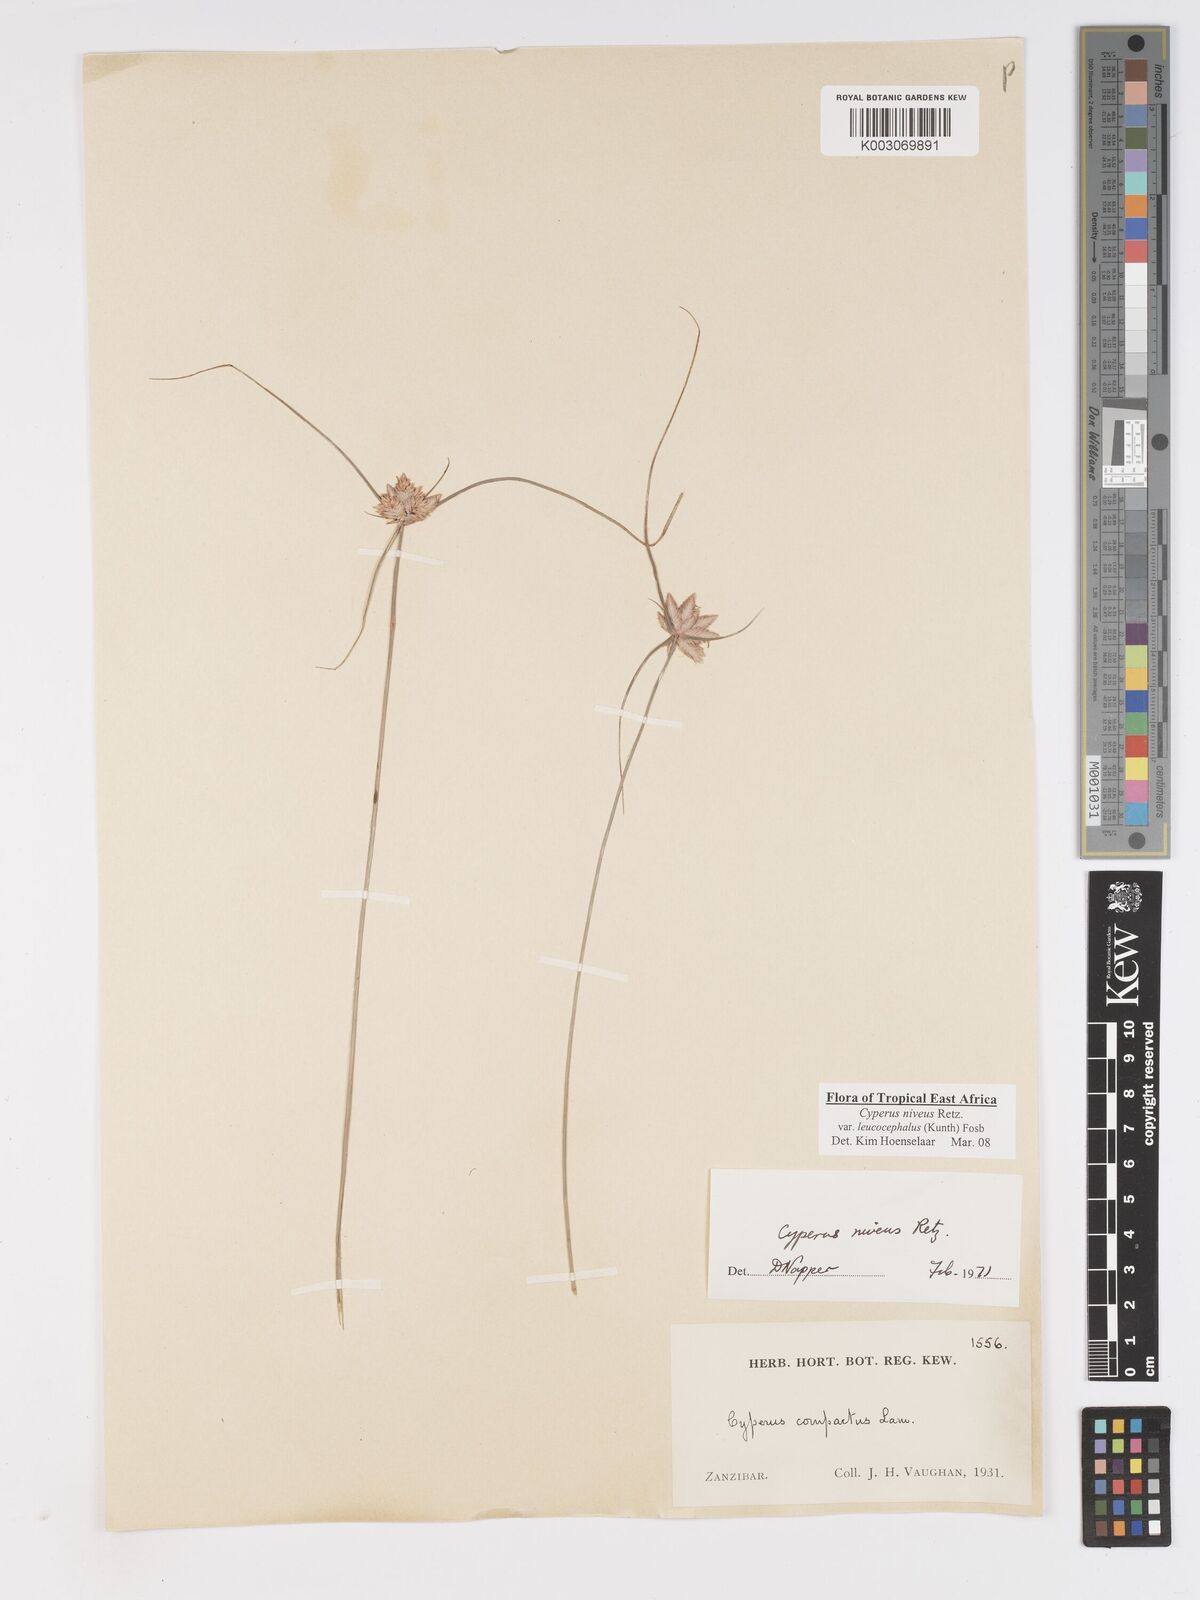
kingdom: Plantae
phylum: Tracheophyta
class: Liliopsida
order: Poales
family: Cyperaceae
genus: Cyperus
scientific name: Cyperus niveus
